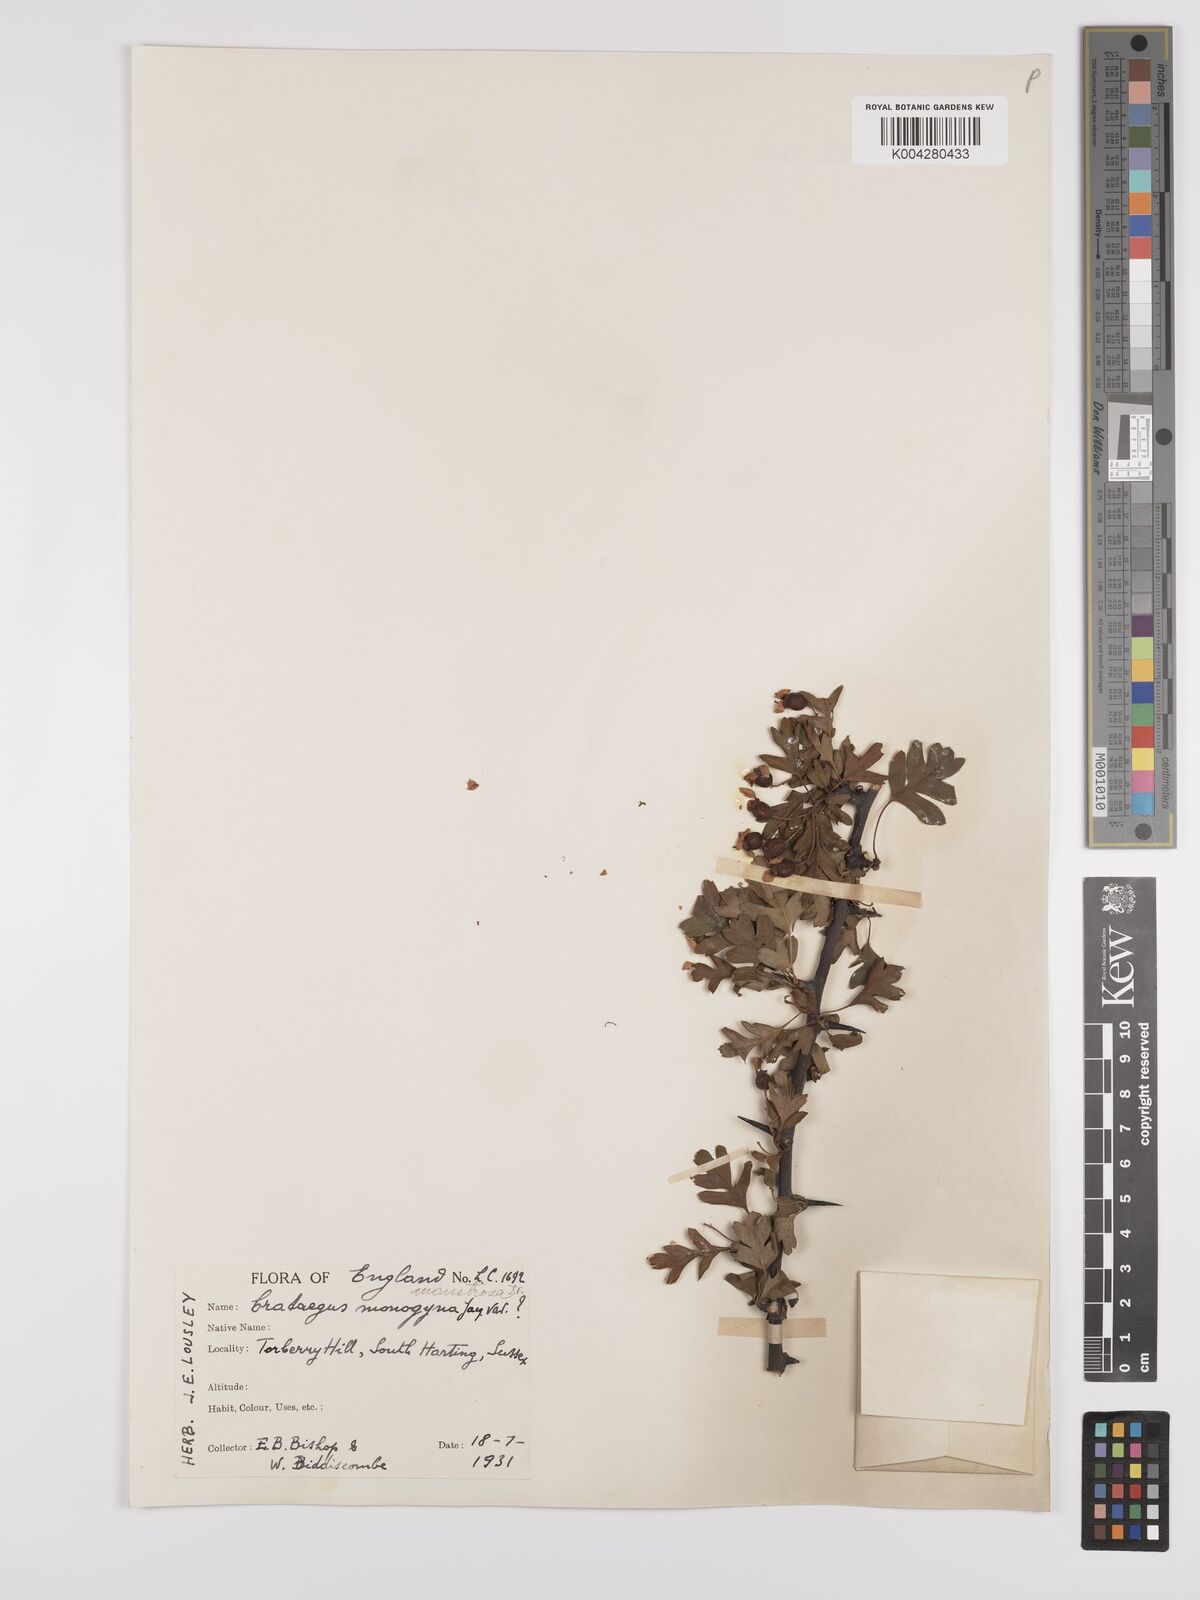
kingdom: Plantae
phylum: Tracheophyta
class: Magnoliopsida
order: Rosales
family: Rosaceae
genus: Crataegus
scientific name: Crataegus monogyna
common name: Hawthorn
